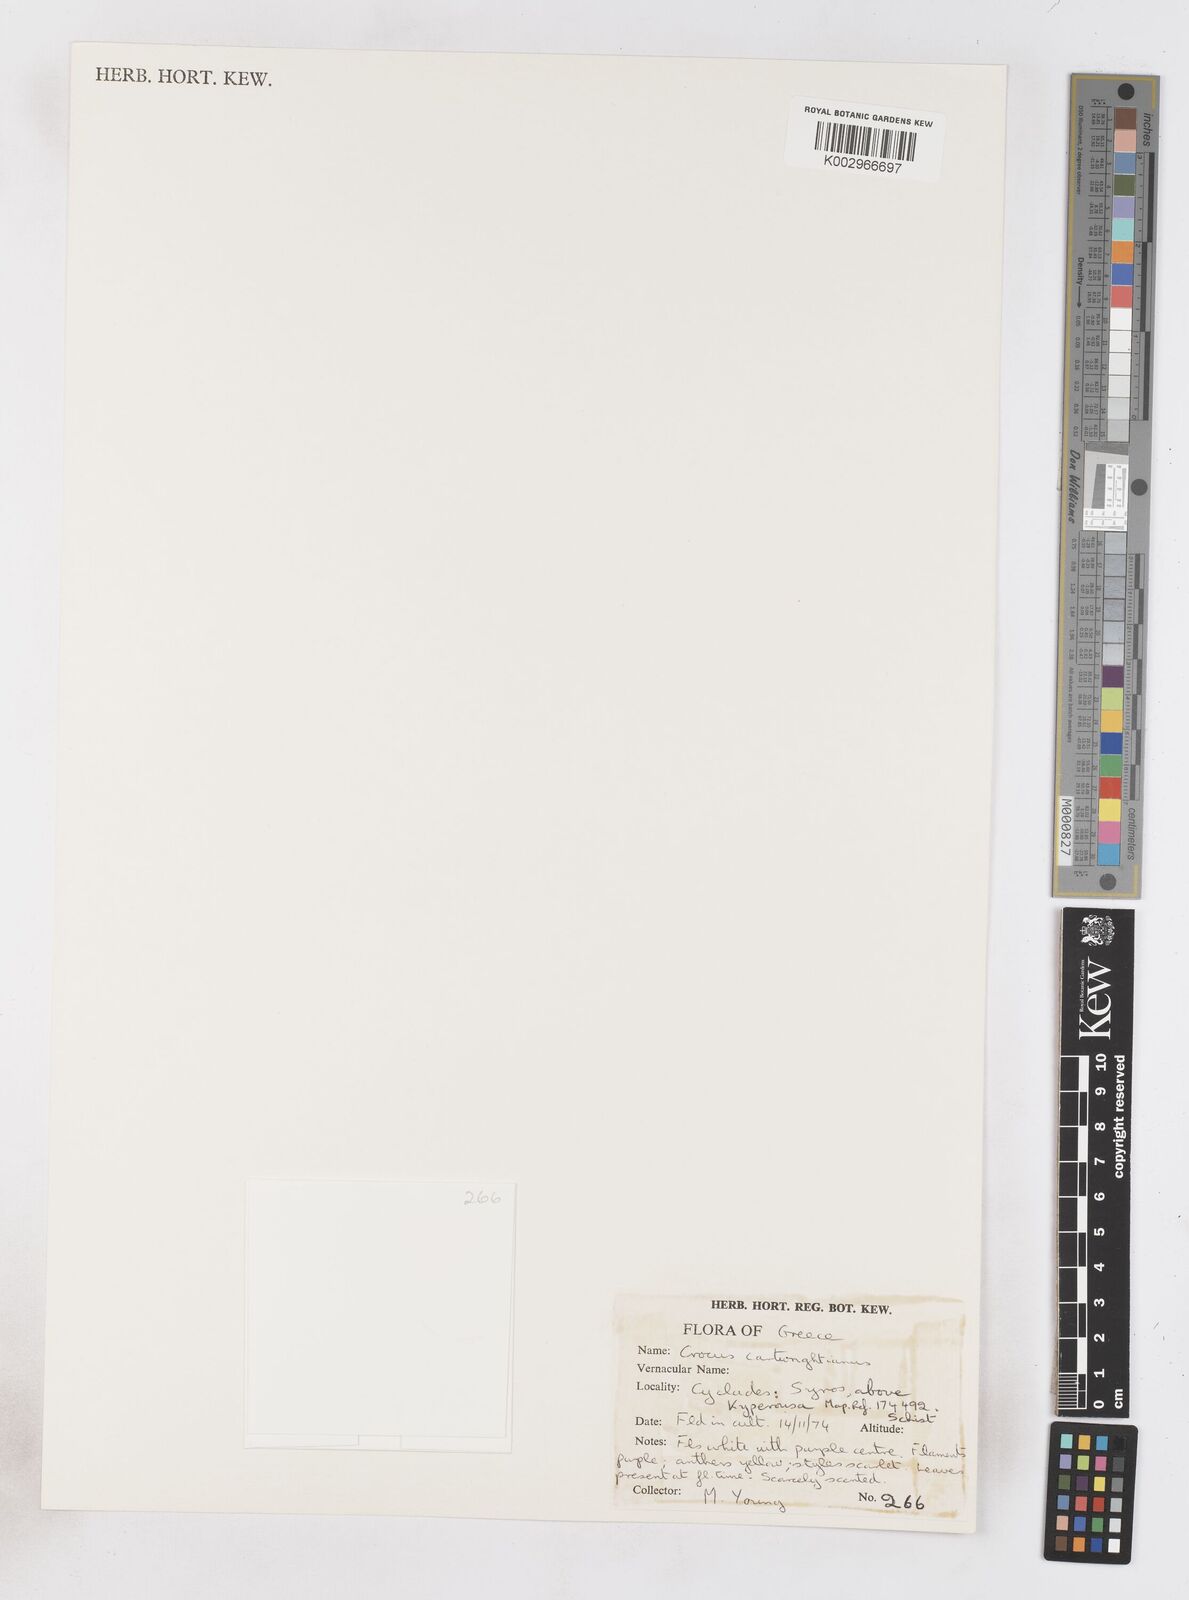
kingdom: Plantae
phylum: Tracheophyta
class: Liliopsida
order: Asparagales
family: Iridaceae
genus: Crocus
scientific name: Crocus cartwrightianus
